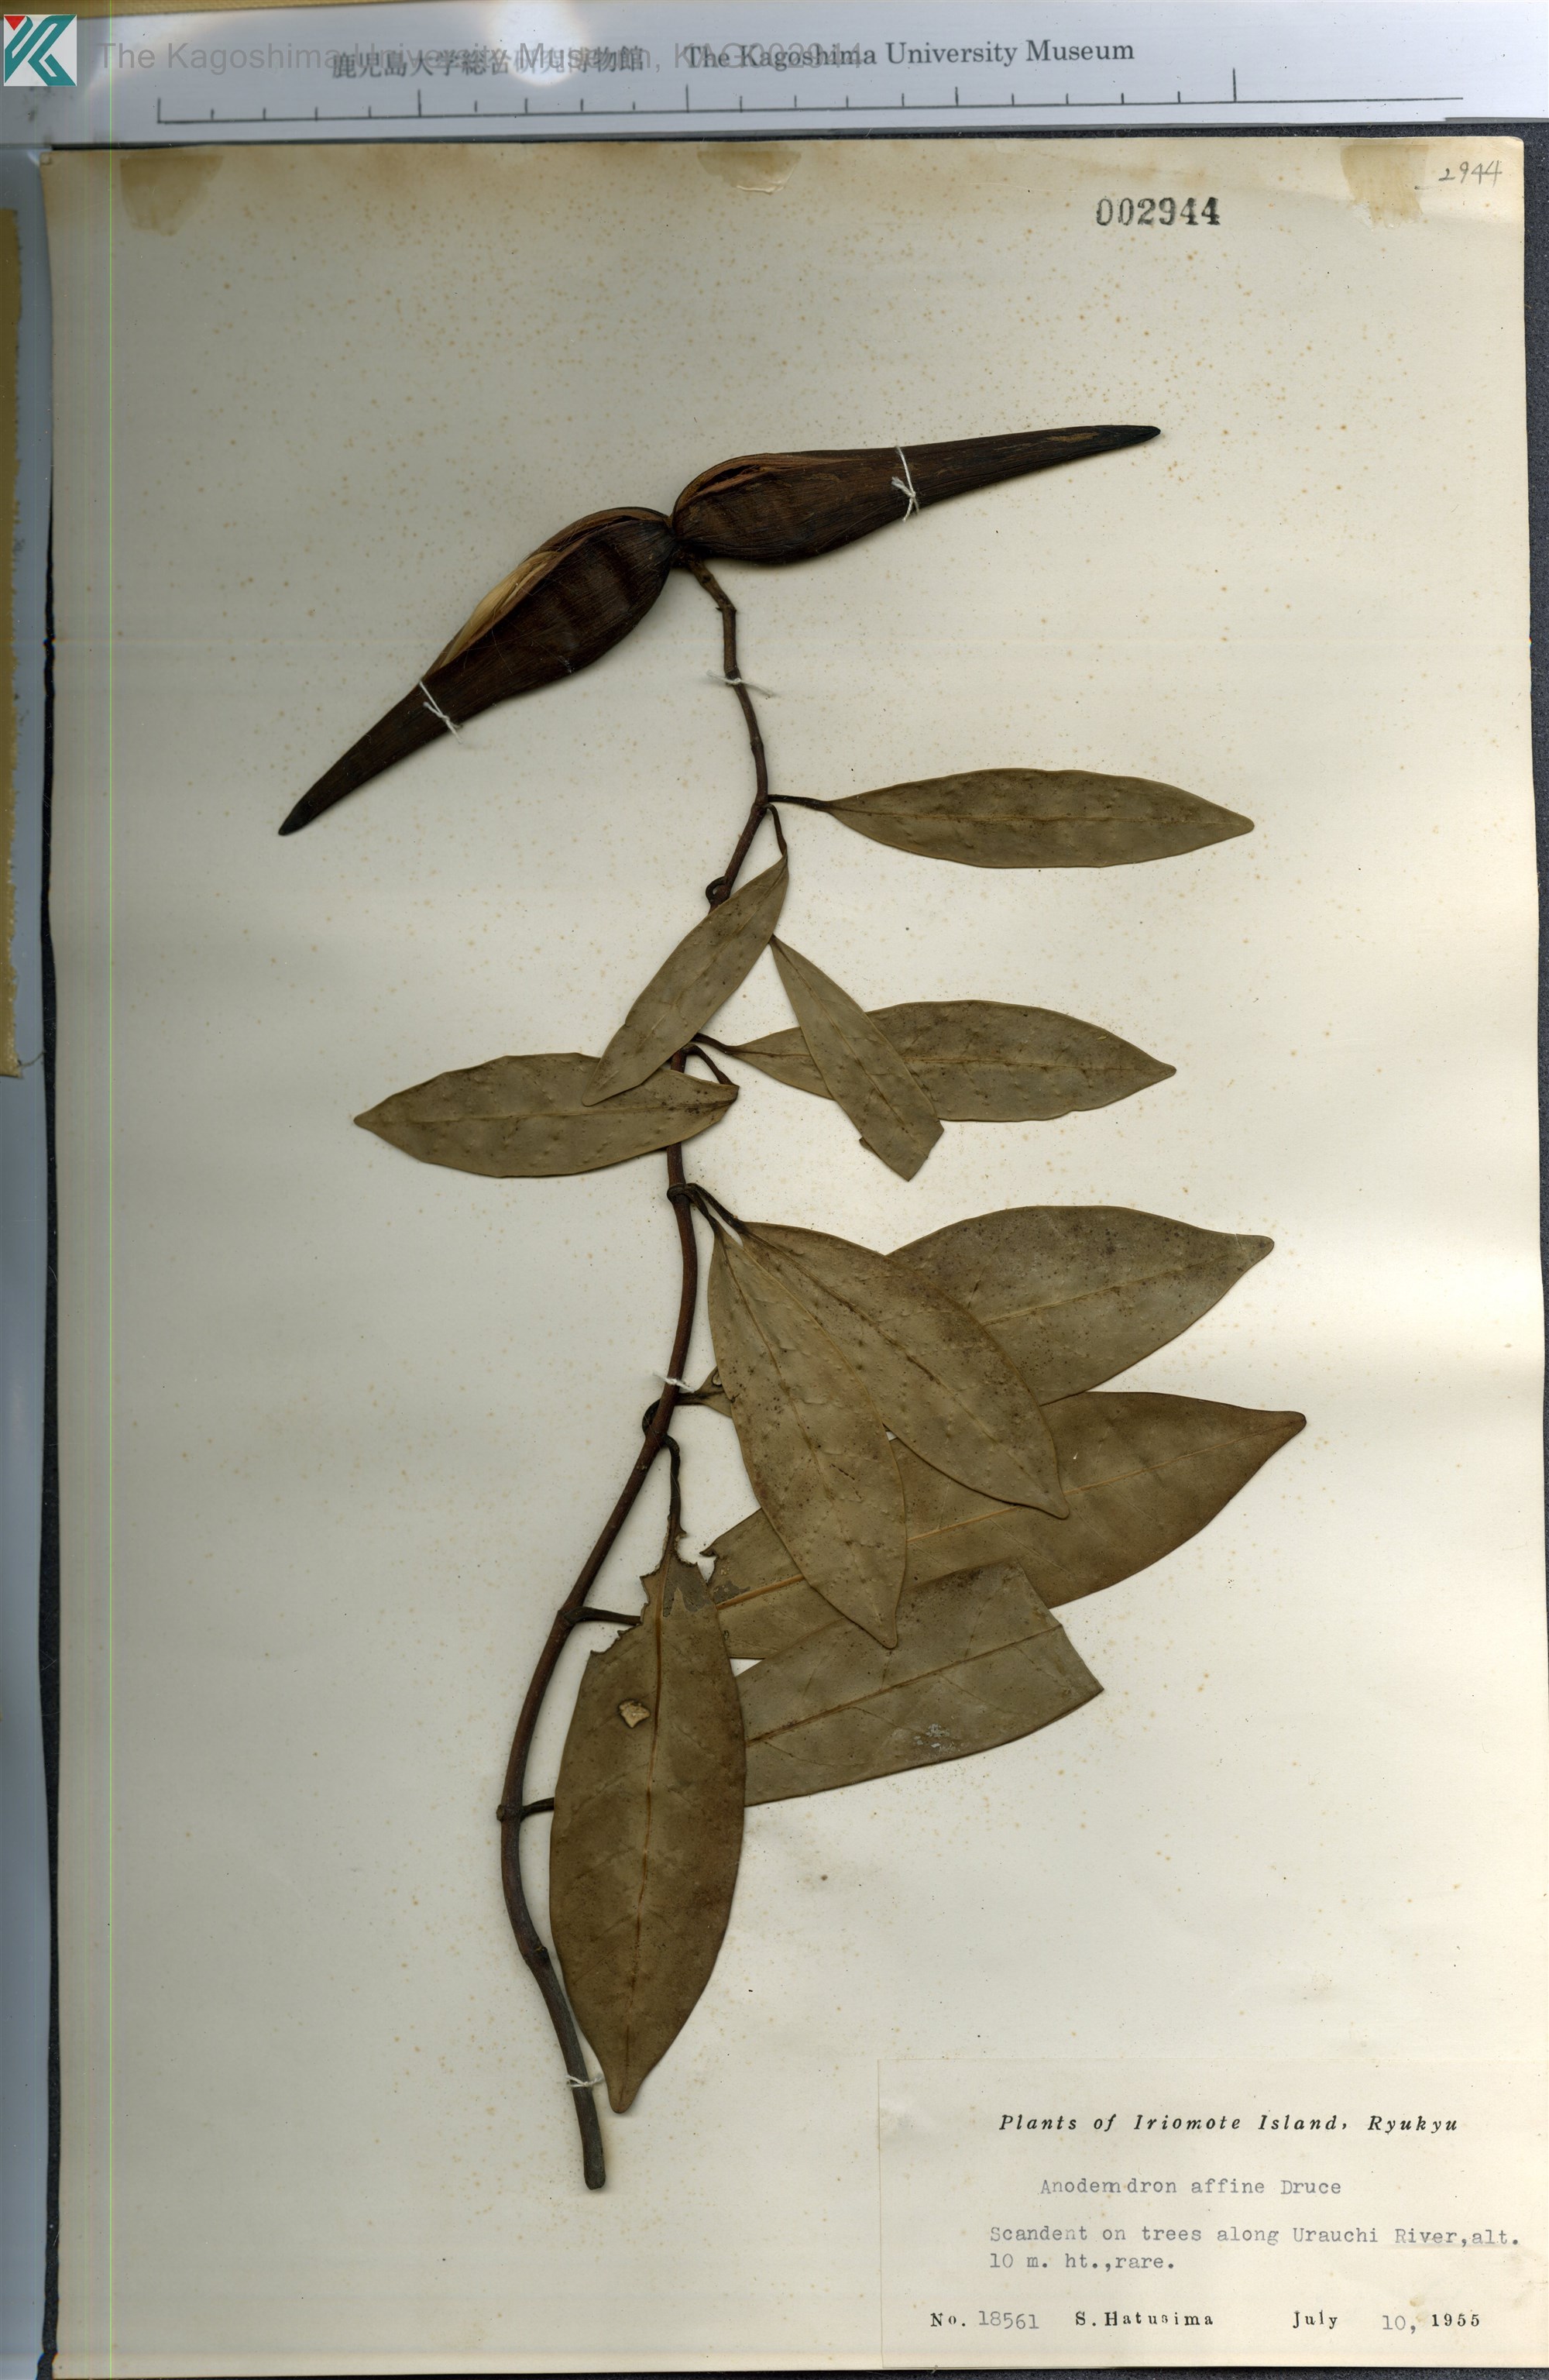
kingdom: Plantae
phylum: Tracheophyta
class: Magnoliopsida
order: Gentianales
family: Apocynaceae
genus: Anodendron
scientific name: Anodendron affine
